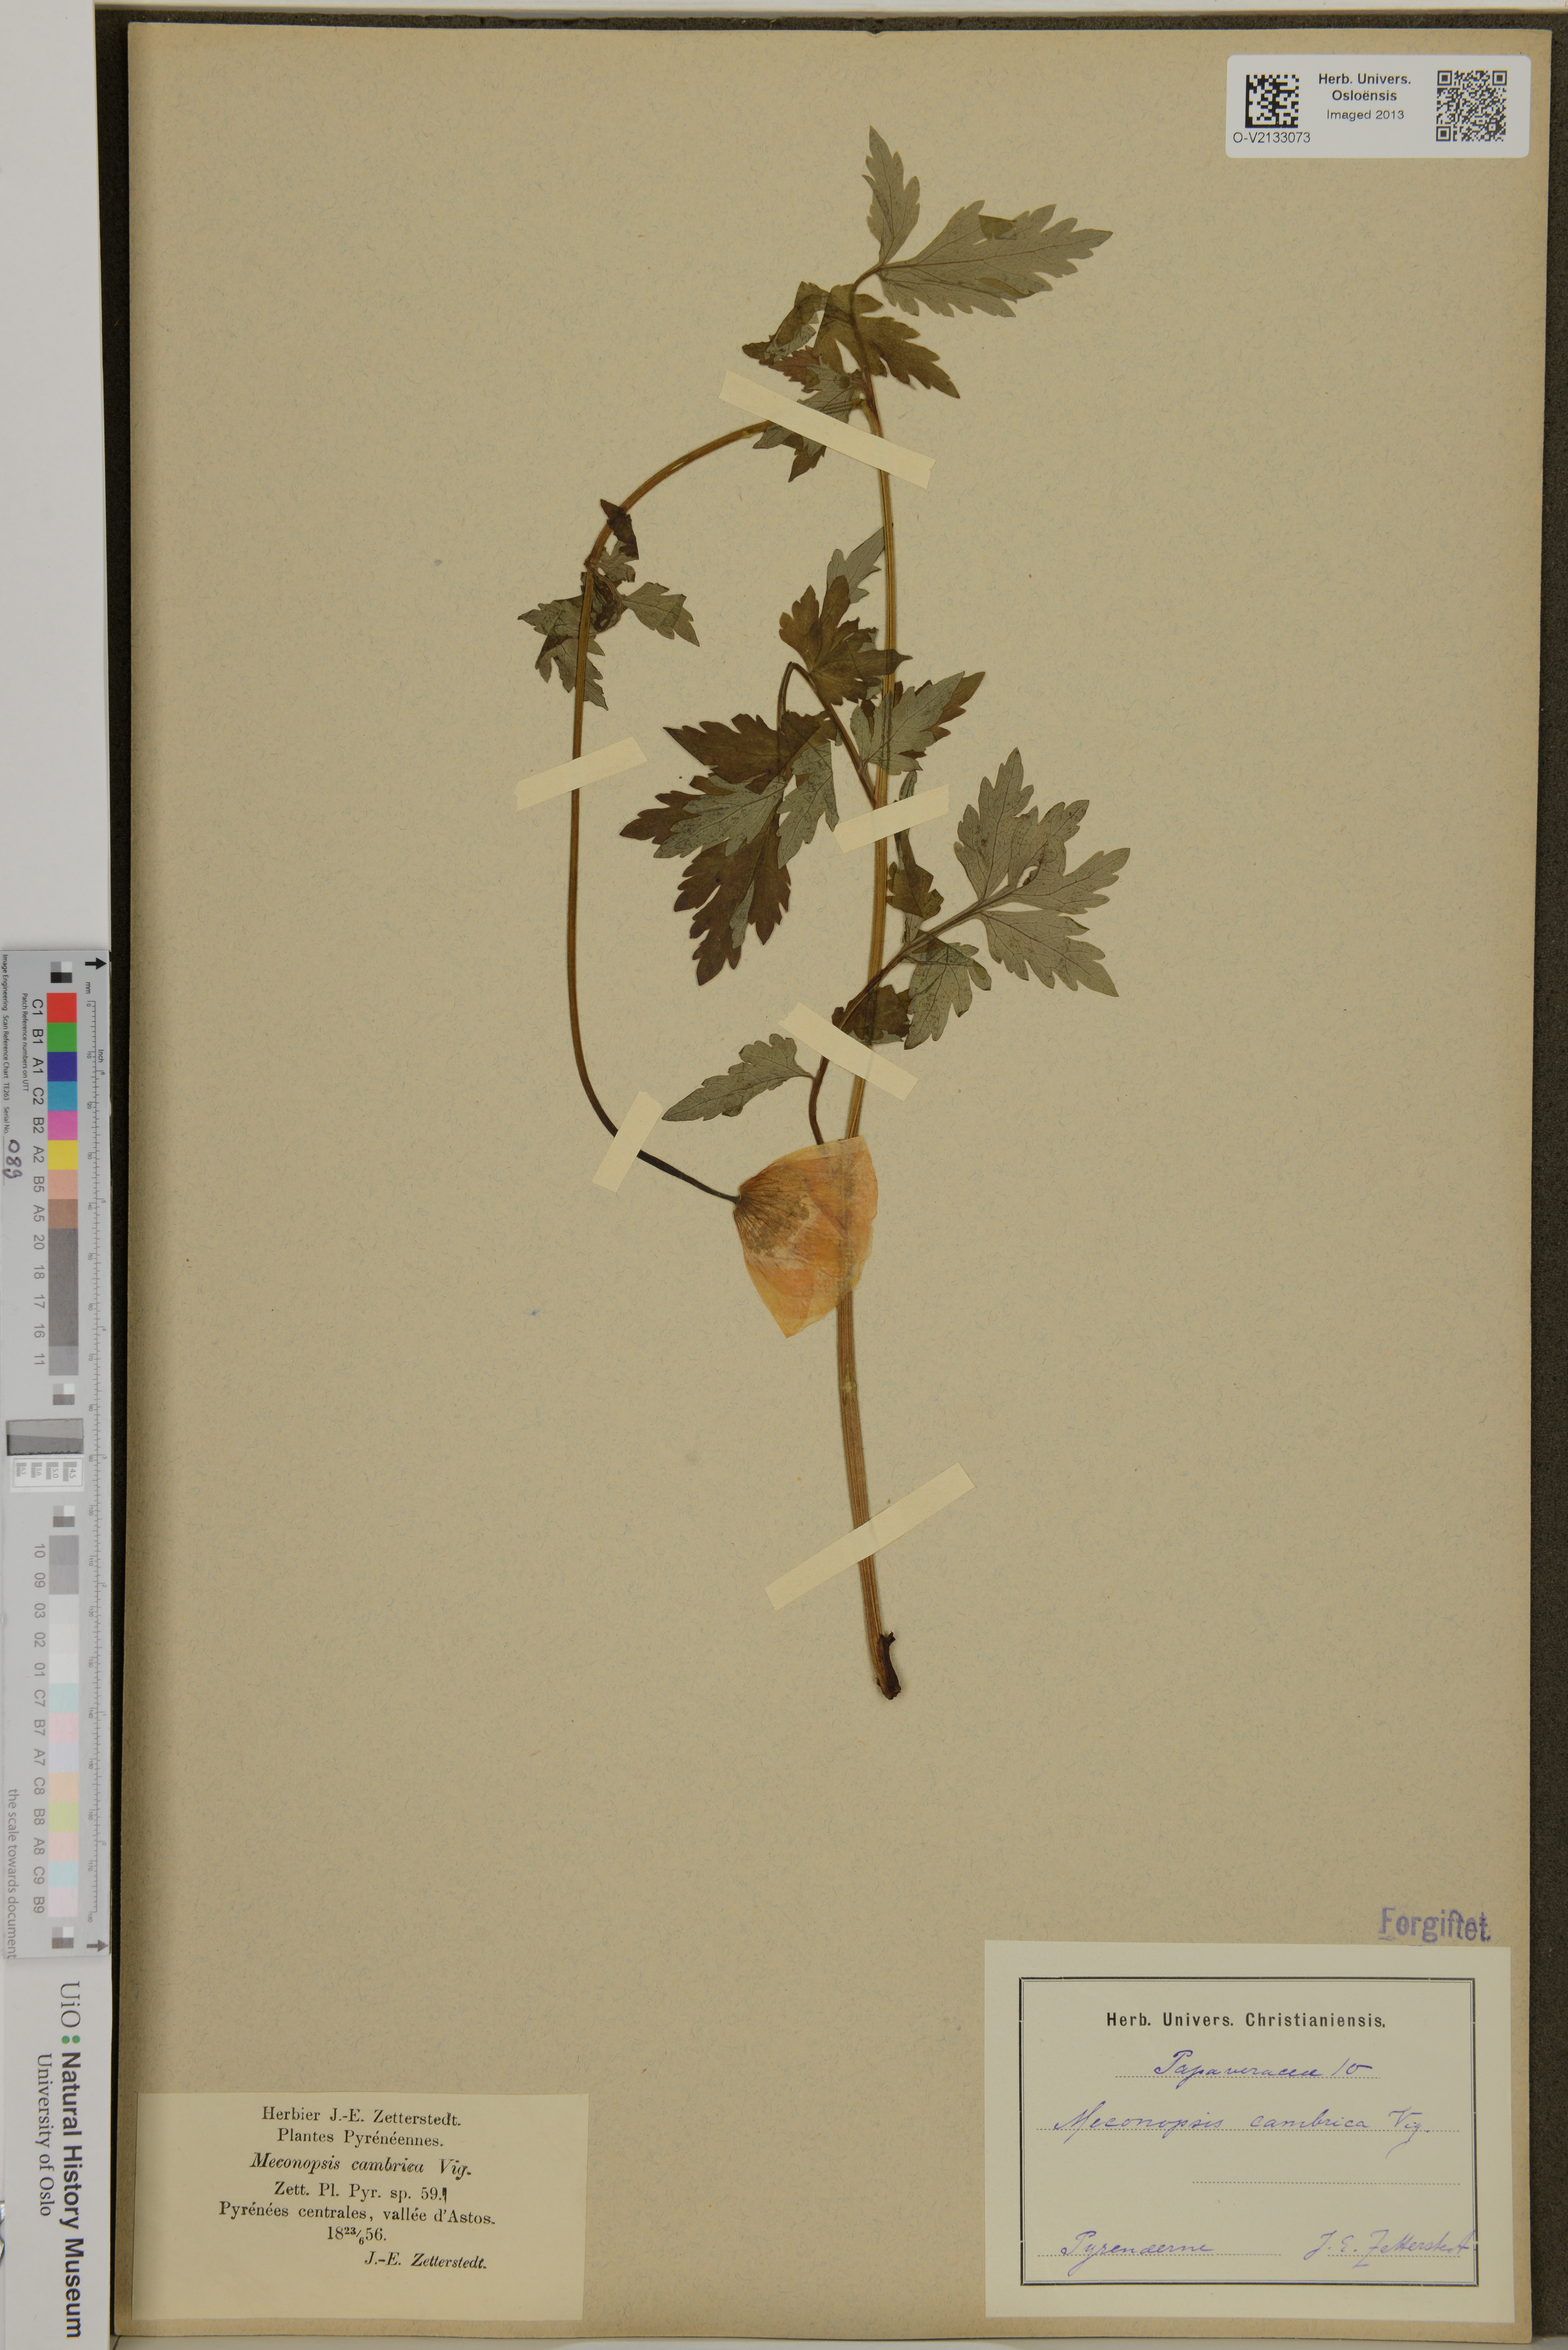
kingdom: Plantae
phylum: Tracheophyta
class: Magnoliopsida
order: Ranunculales
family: Papaveraceae
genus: Papaver
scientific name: Papaver cambricum
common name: Poppy
